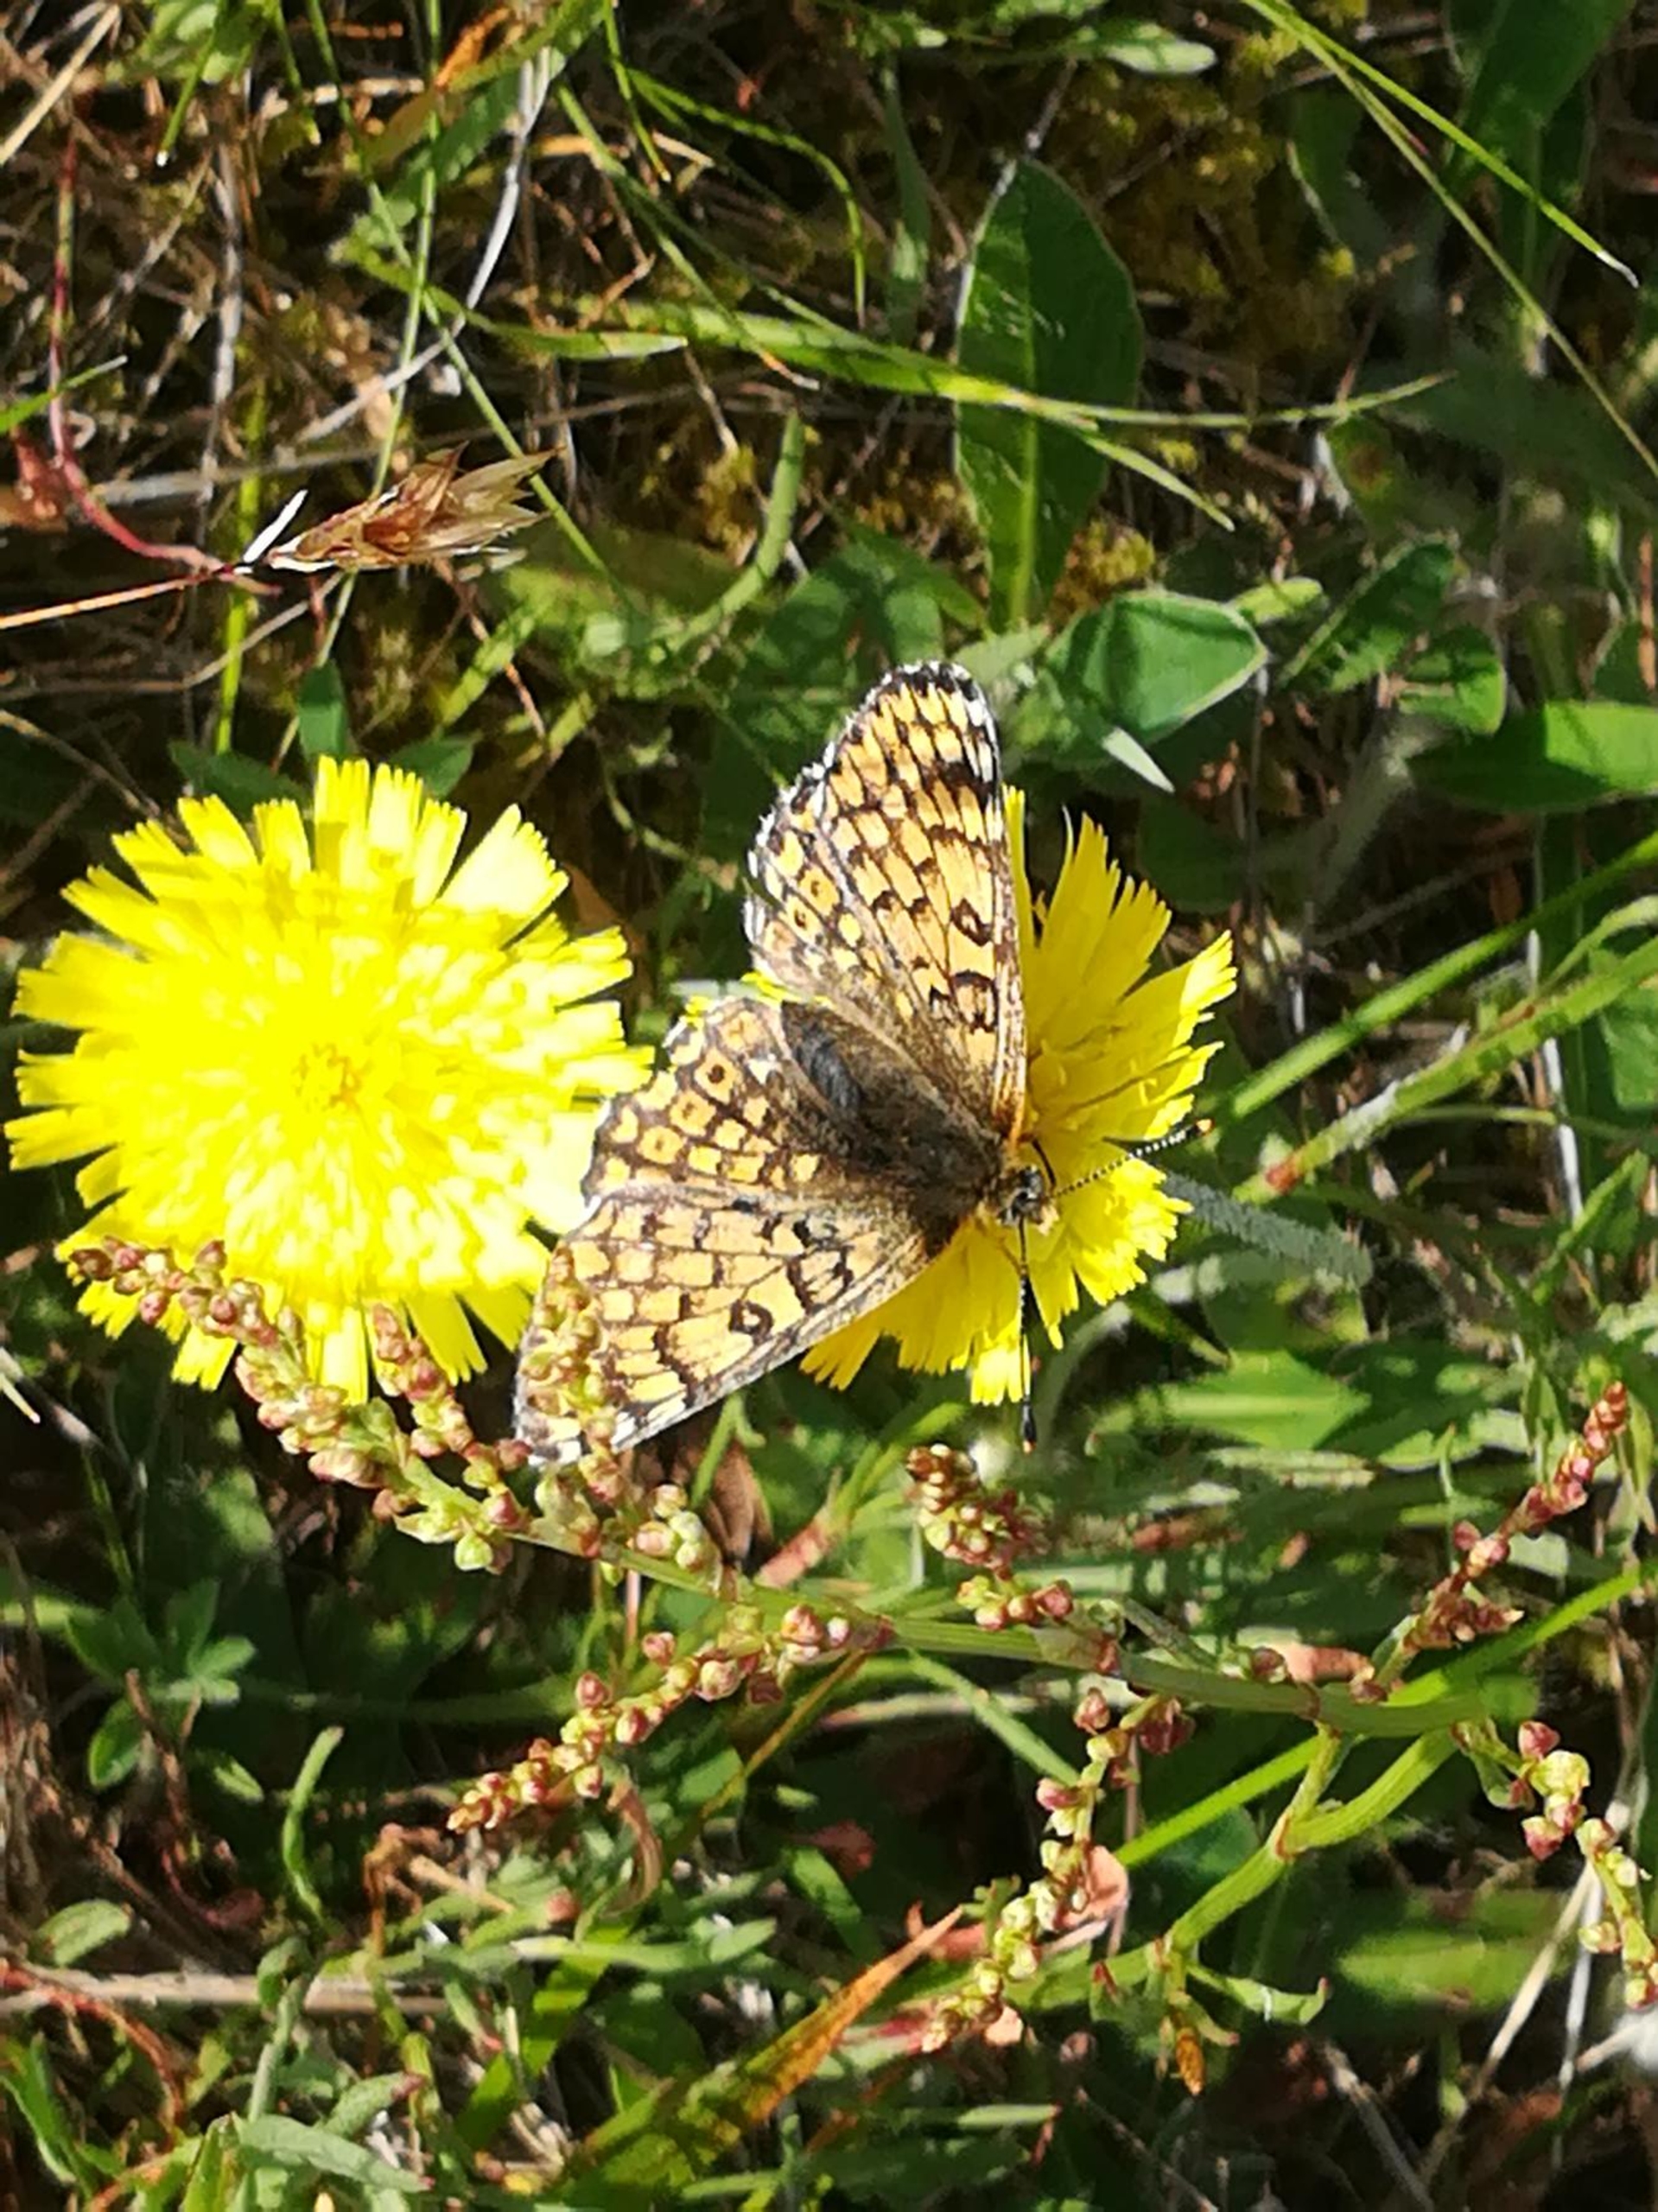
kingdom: Animalia
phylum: Arthropoda
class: Insecta
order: Lepidoptera
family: Nymphalidae
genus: Melitaea
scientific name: Melitaea cinxia
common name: Okkergul pletvinge
